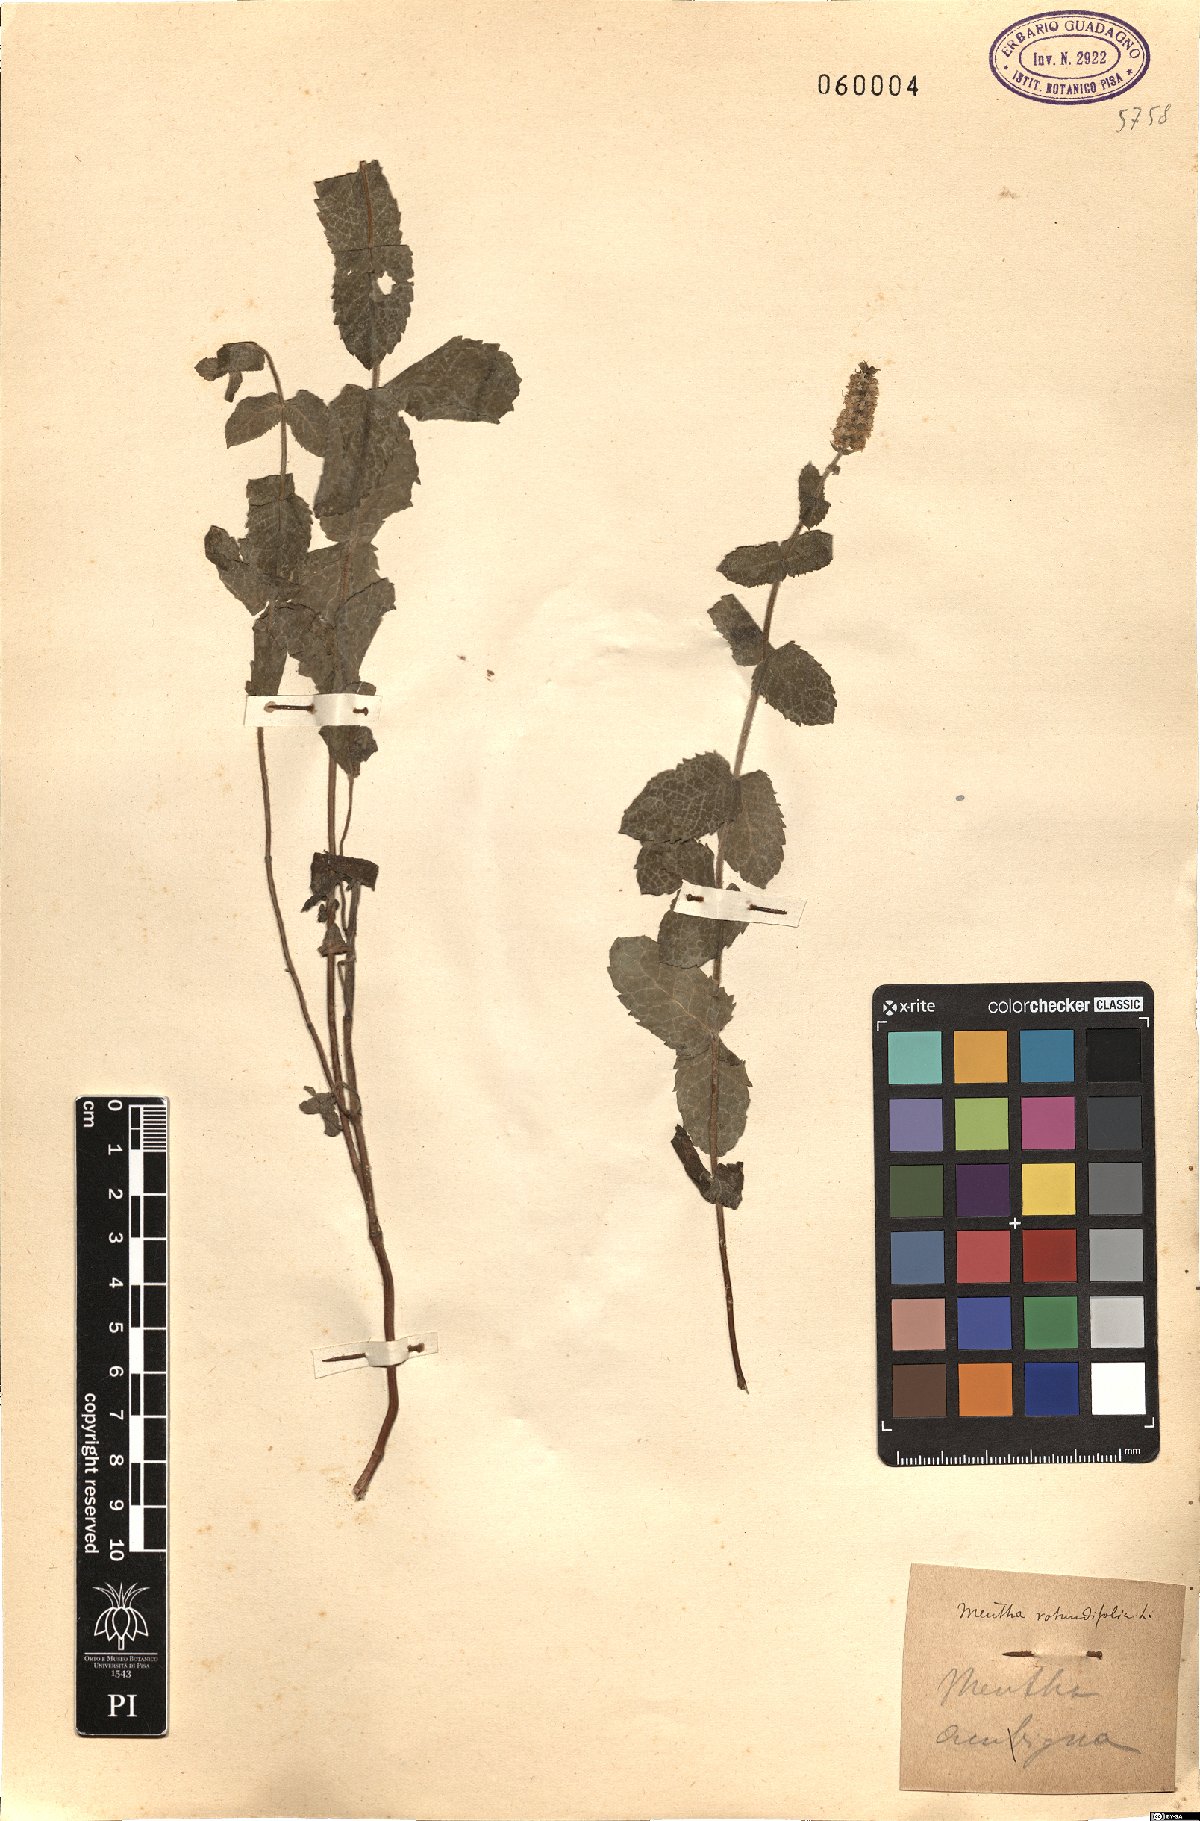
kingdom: Plantae
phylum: Tracheophyta
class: Magnoliopsida
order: Lamiales
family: Lamiaceae
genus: Mentha
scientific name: Mentha rotundifolia
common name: Bigleaf mint
